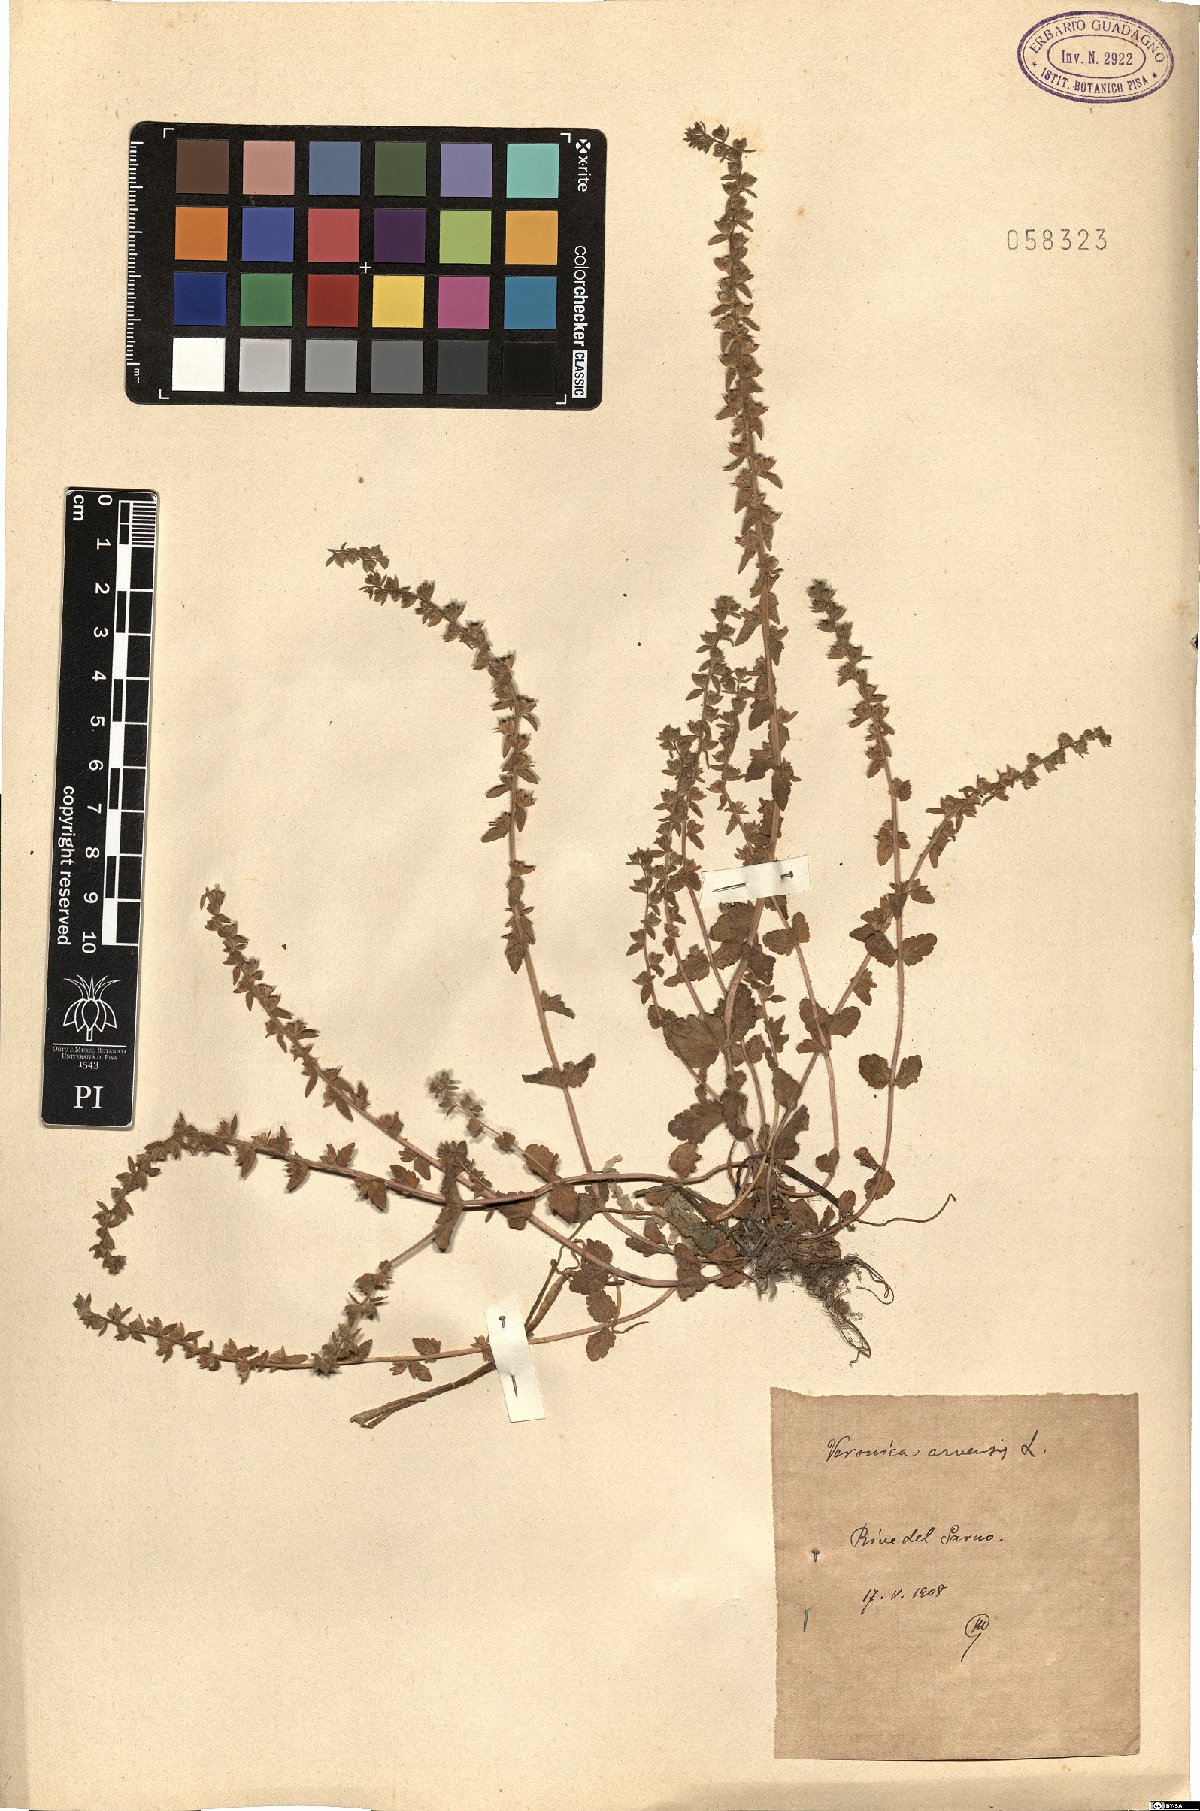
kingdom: Plantae
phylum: Tracheophyta
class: Magnoliopsida
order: Lamiales
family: Plantaginaceae
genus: Veronica
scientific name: Veronica arvensis
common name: Corn speedwell
